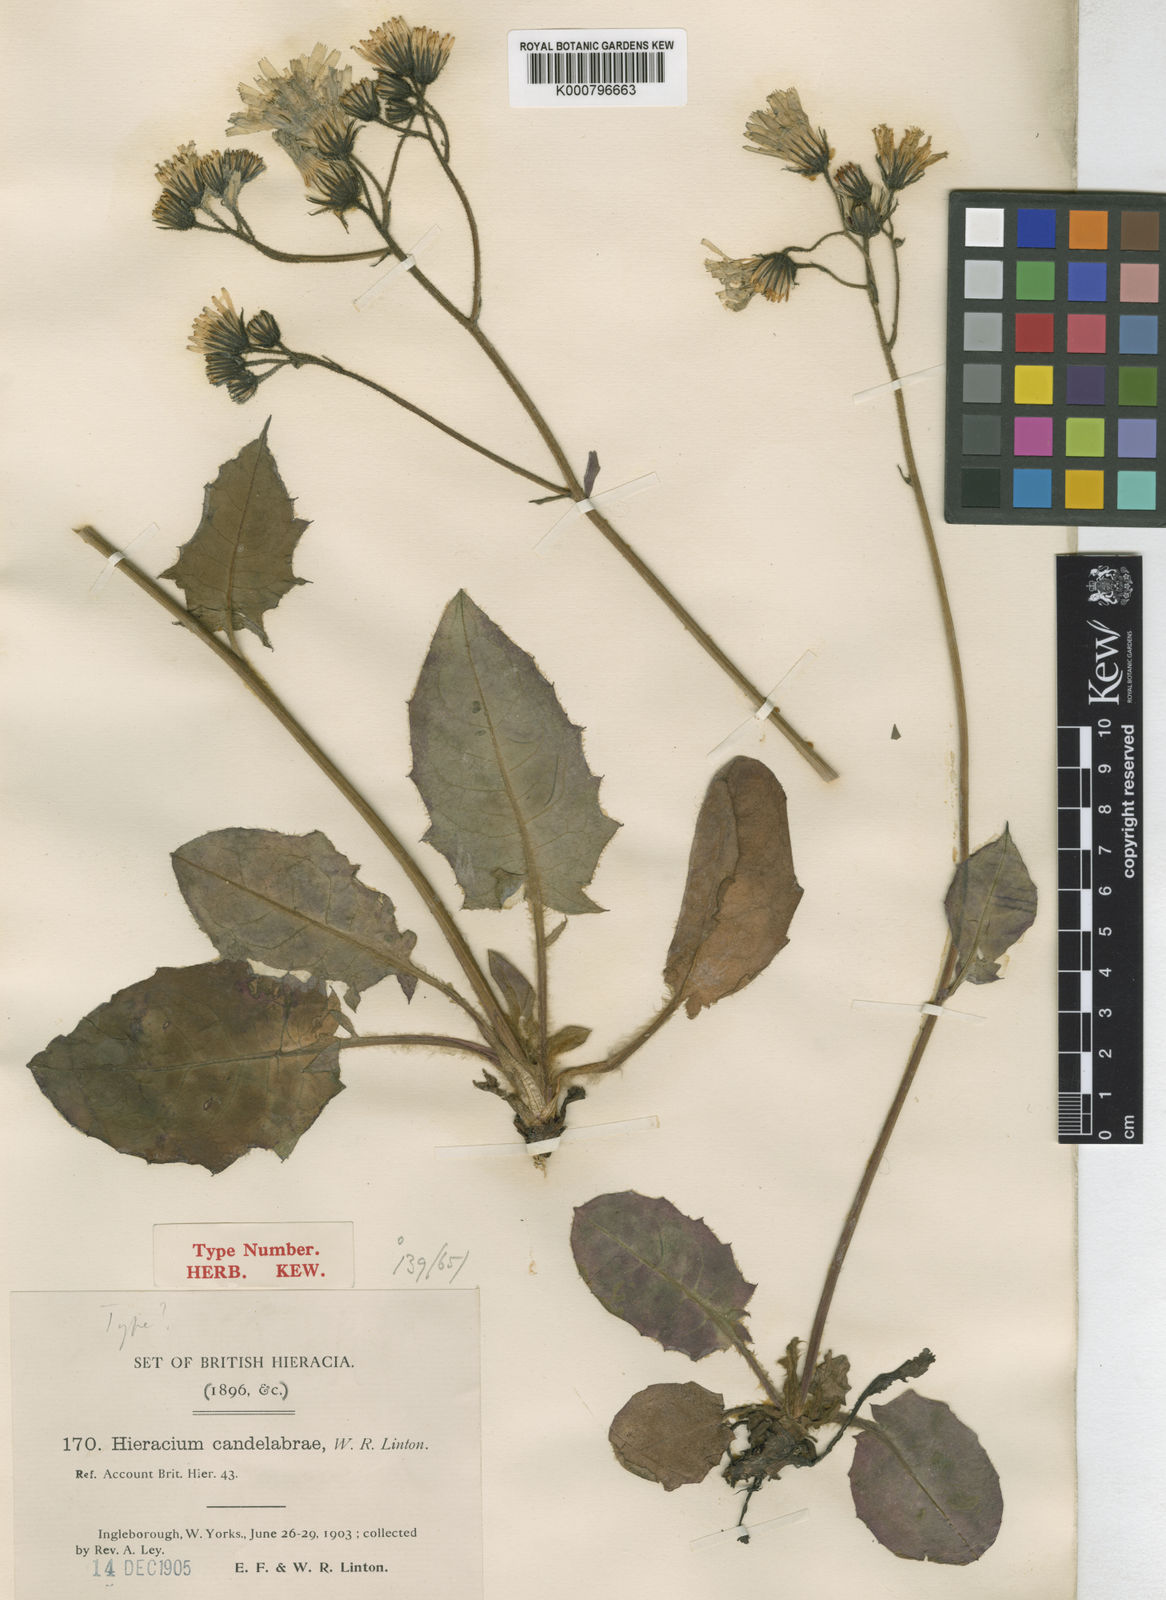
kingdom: Plantae
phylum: Tracheophyta
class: Magnoliopsida
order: Asterales
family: Asteraceae
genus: Hieracium
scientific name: Hieracium
